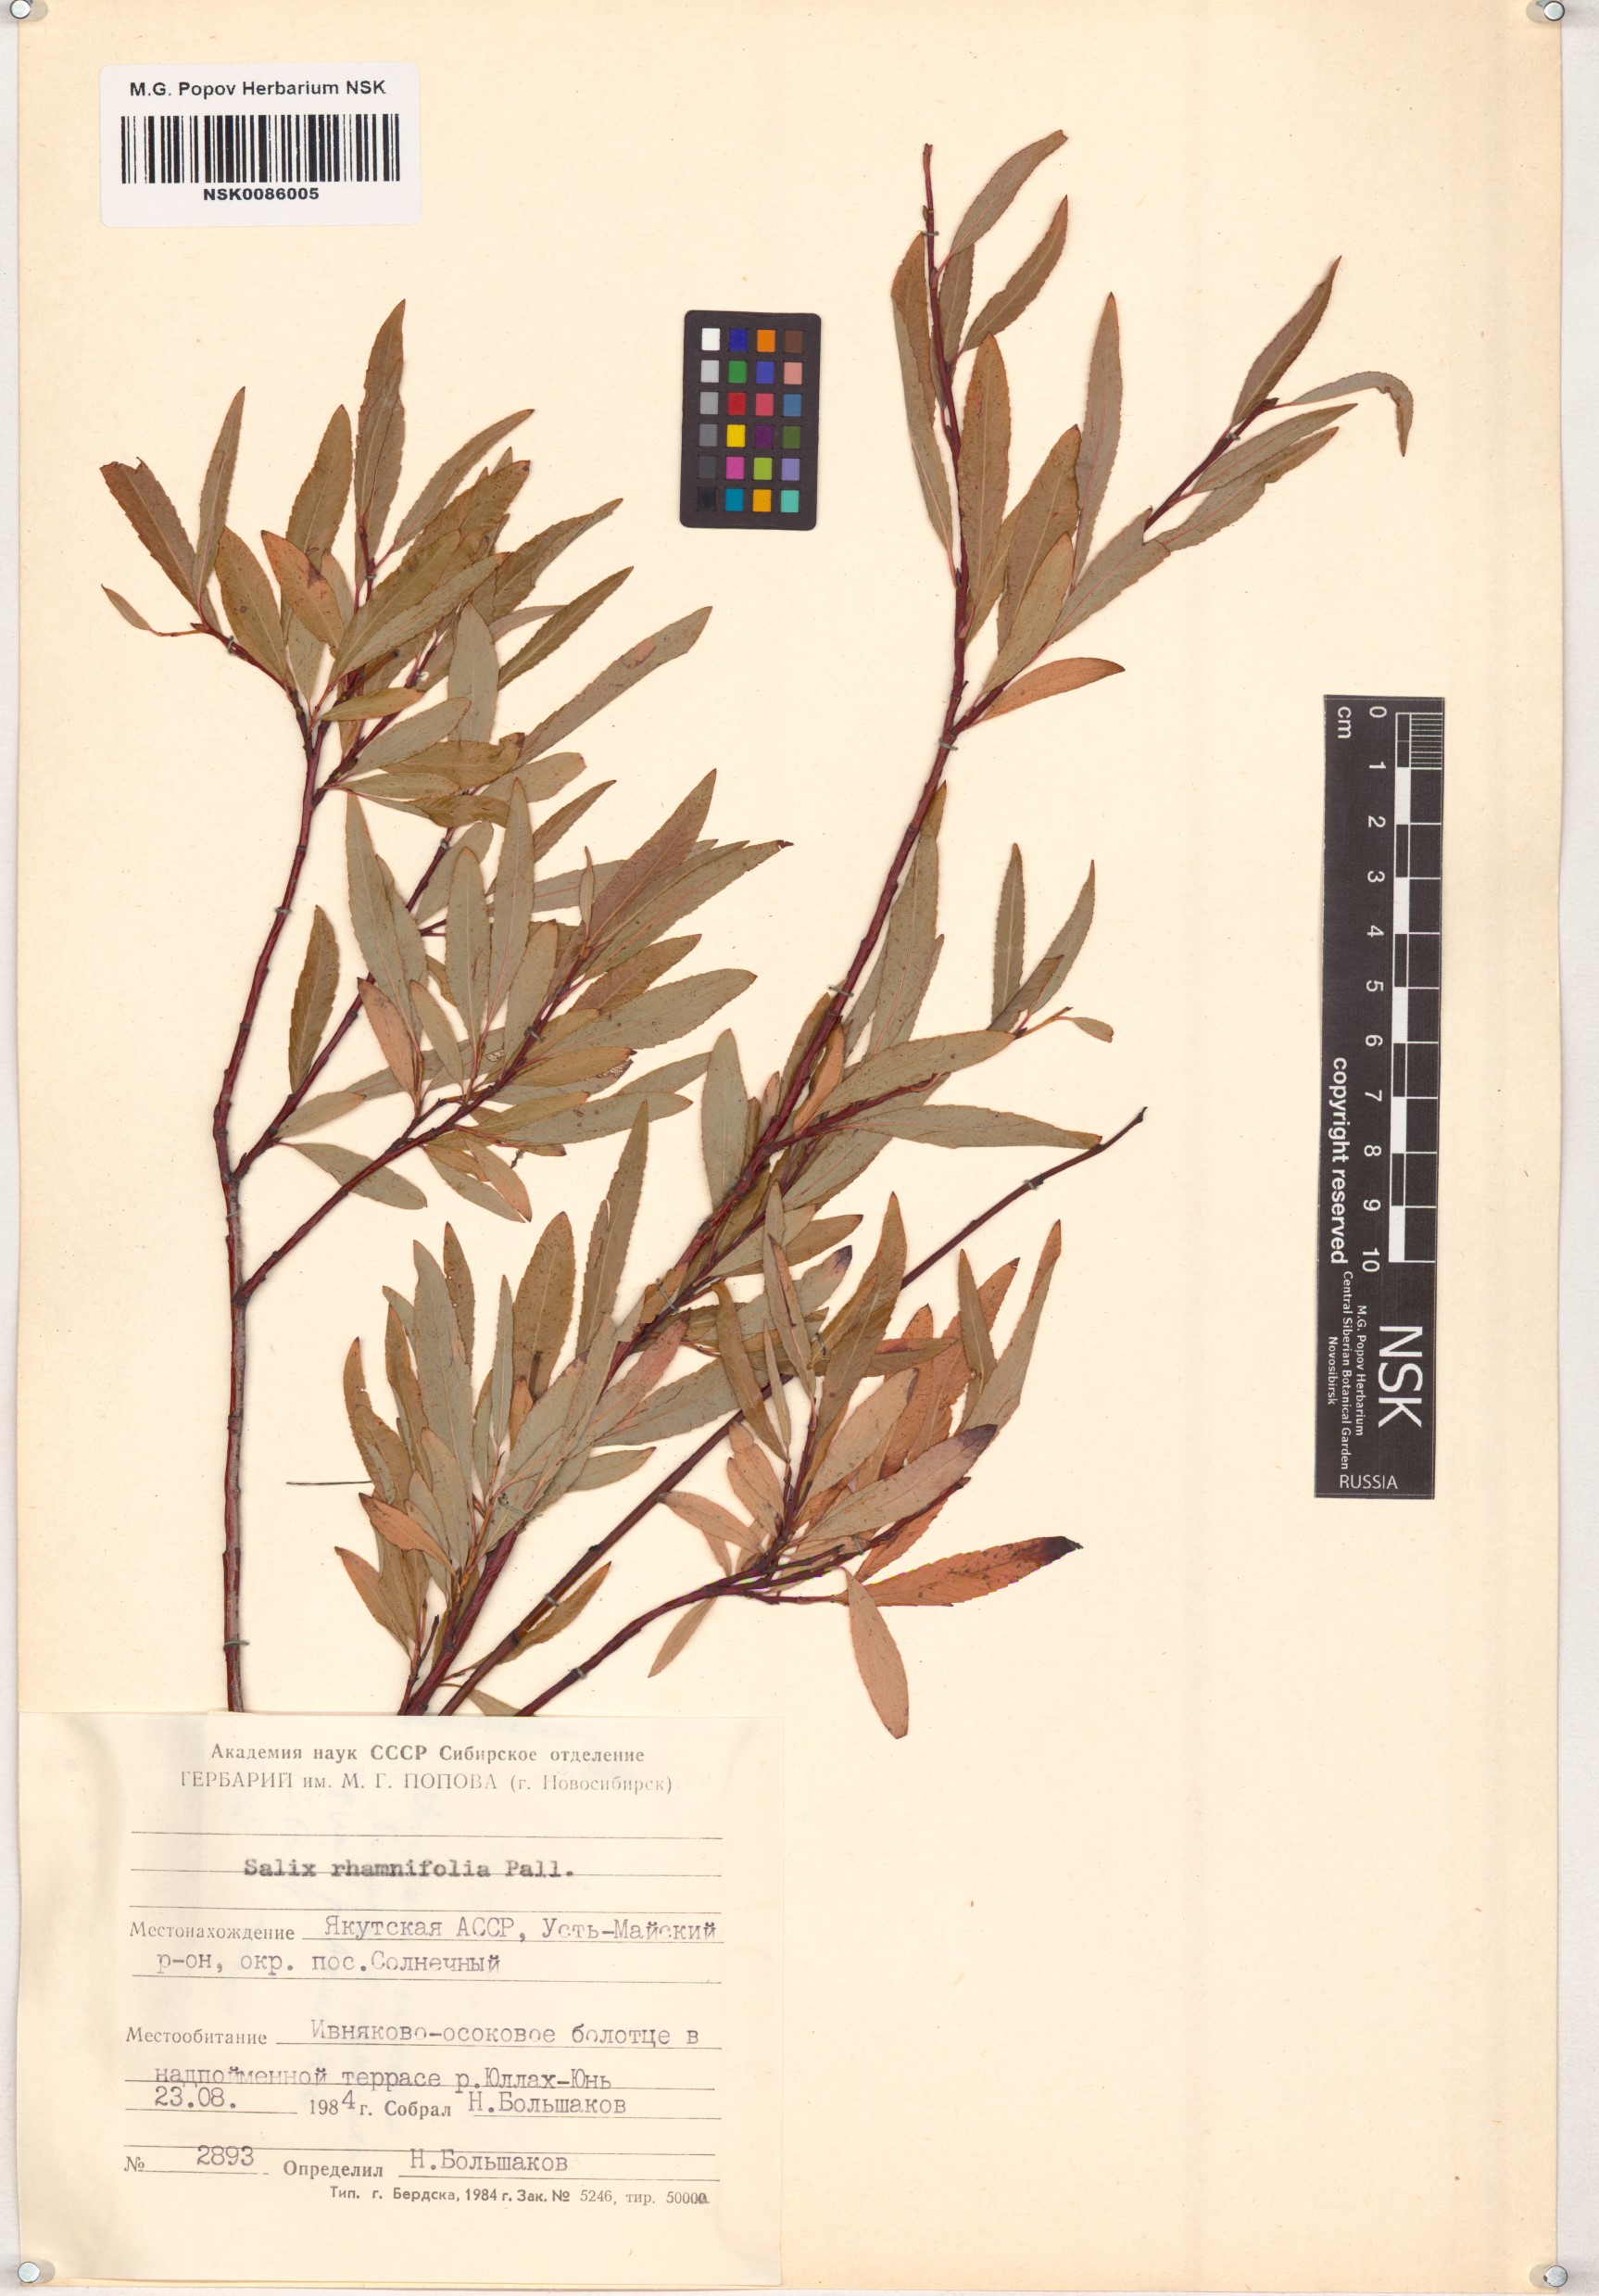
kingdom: Plantae
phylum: Tracheophyta
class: Magnoliopsida
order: Malpighiales
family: Salicaceae
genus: Salix
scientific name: Salix rhamnifolia
